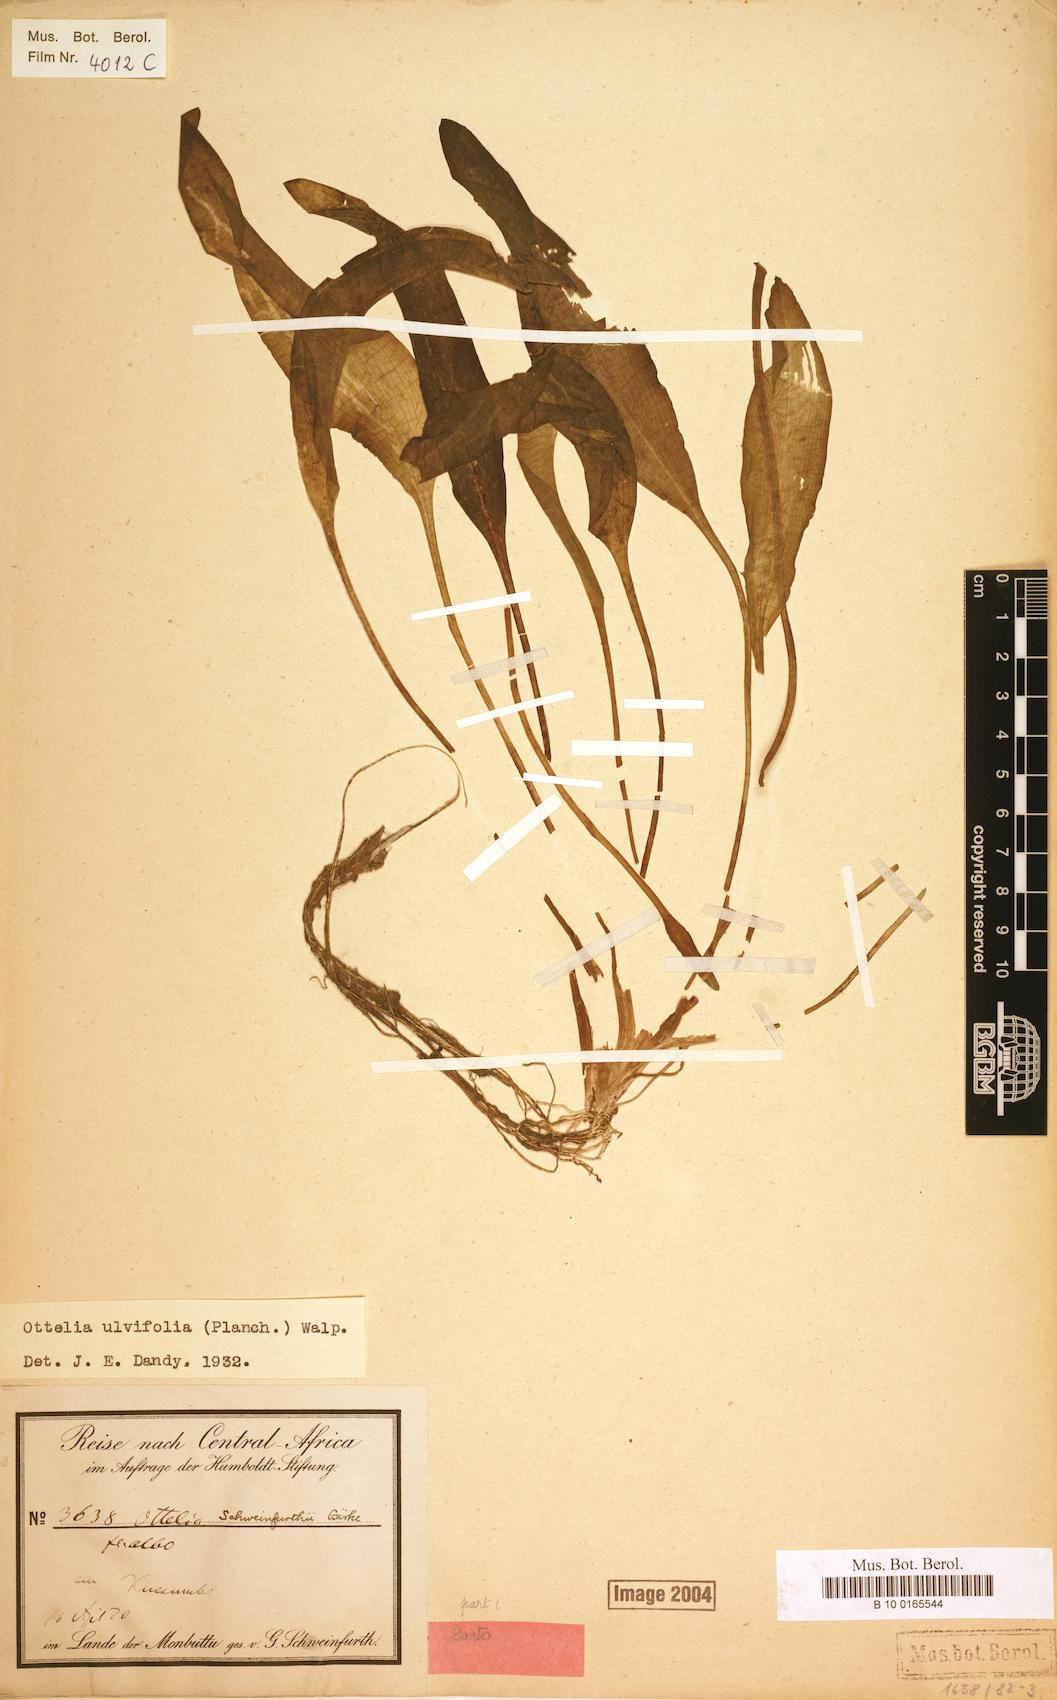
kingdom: Plantae
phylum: Tracheophyta
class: Liliopsida
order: Alismatales
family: Hydrocharitaceae
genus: Ottelia
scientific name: Ottelia ulvifolia
